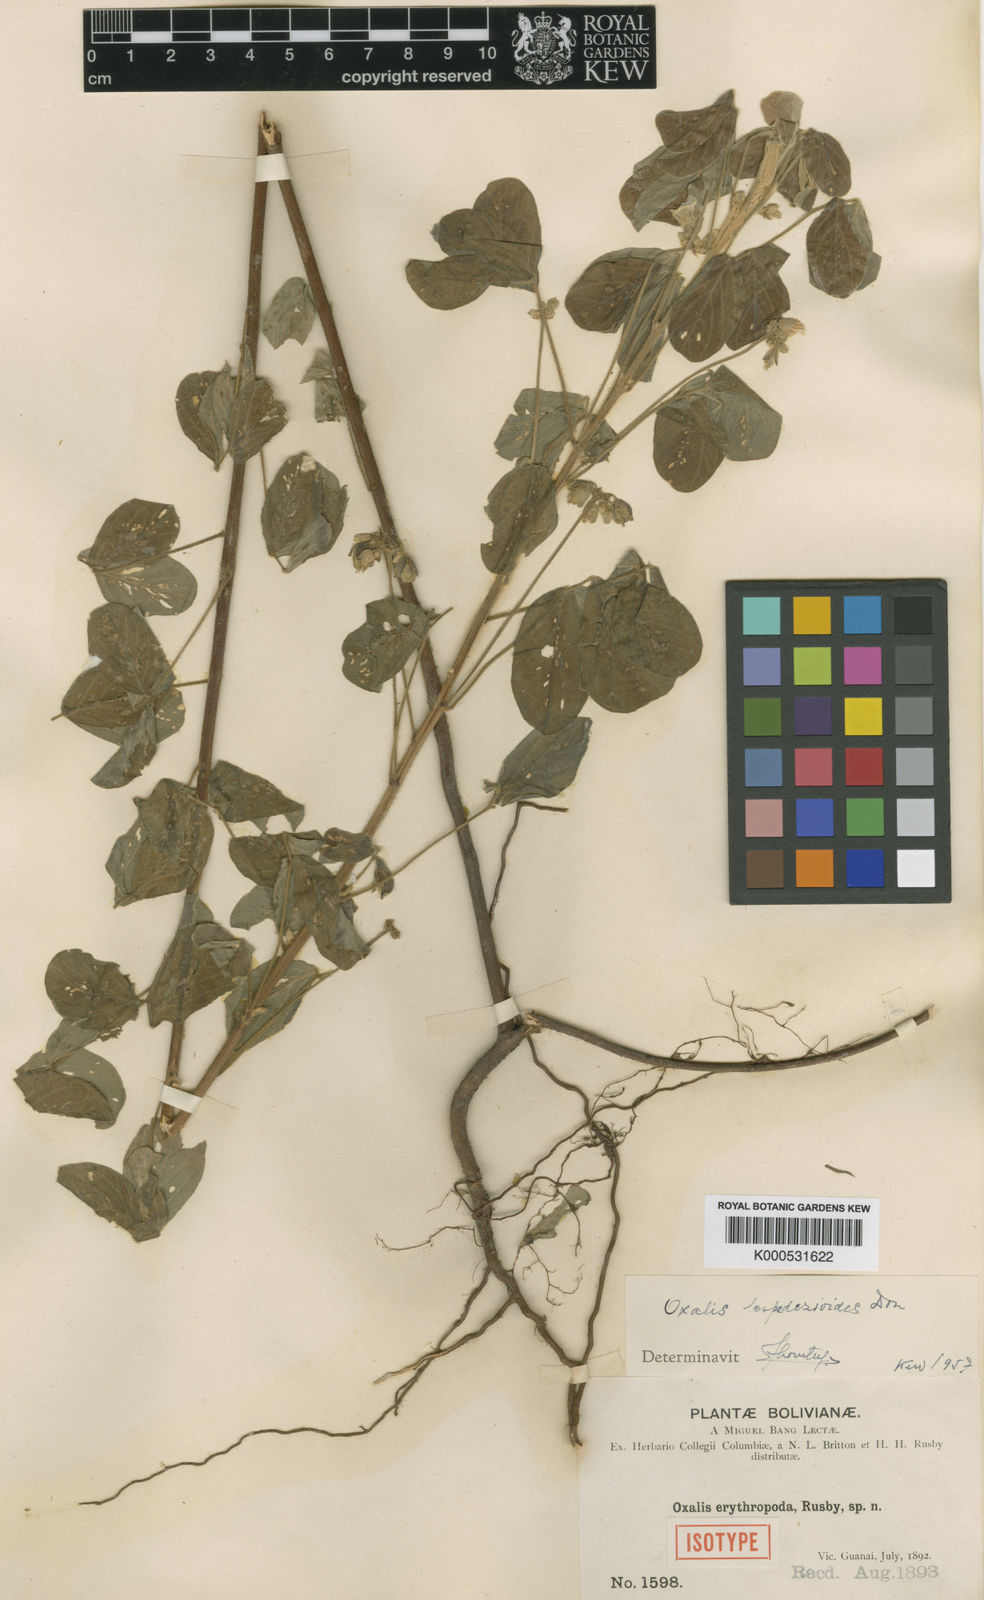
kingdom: Plantae
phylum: Tracheophyta
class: Magnoliopsida
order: Oxalidales
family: Oxalidaceae
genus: Oxalis
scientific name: Oxalis lespedezioides
